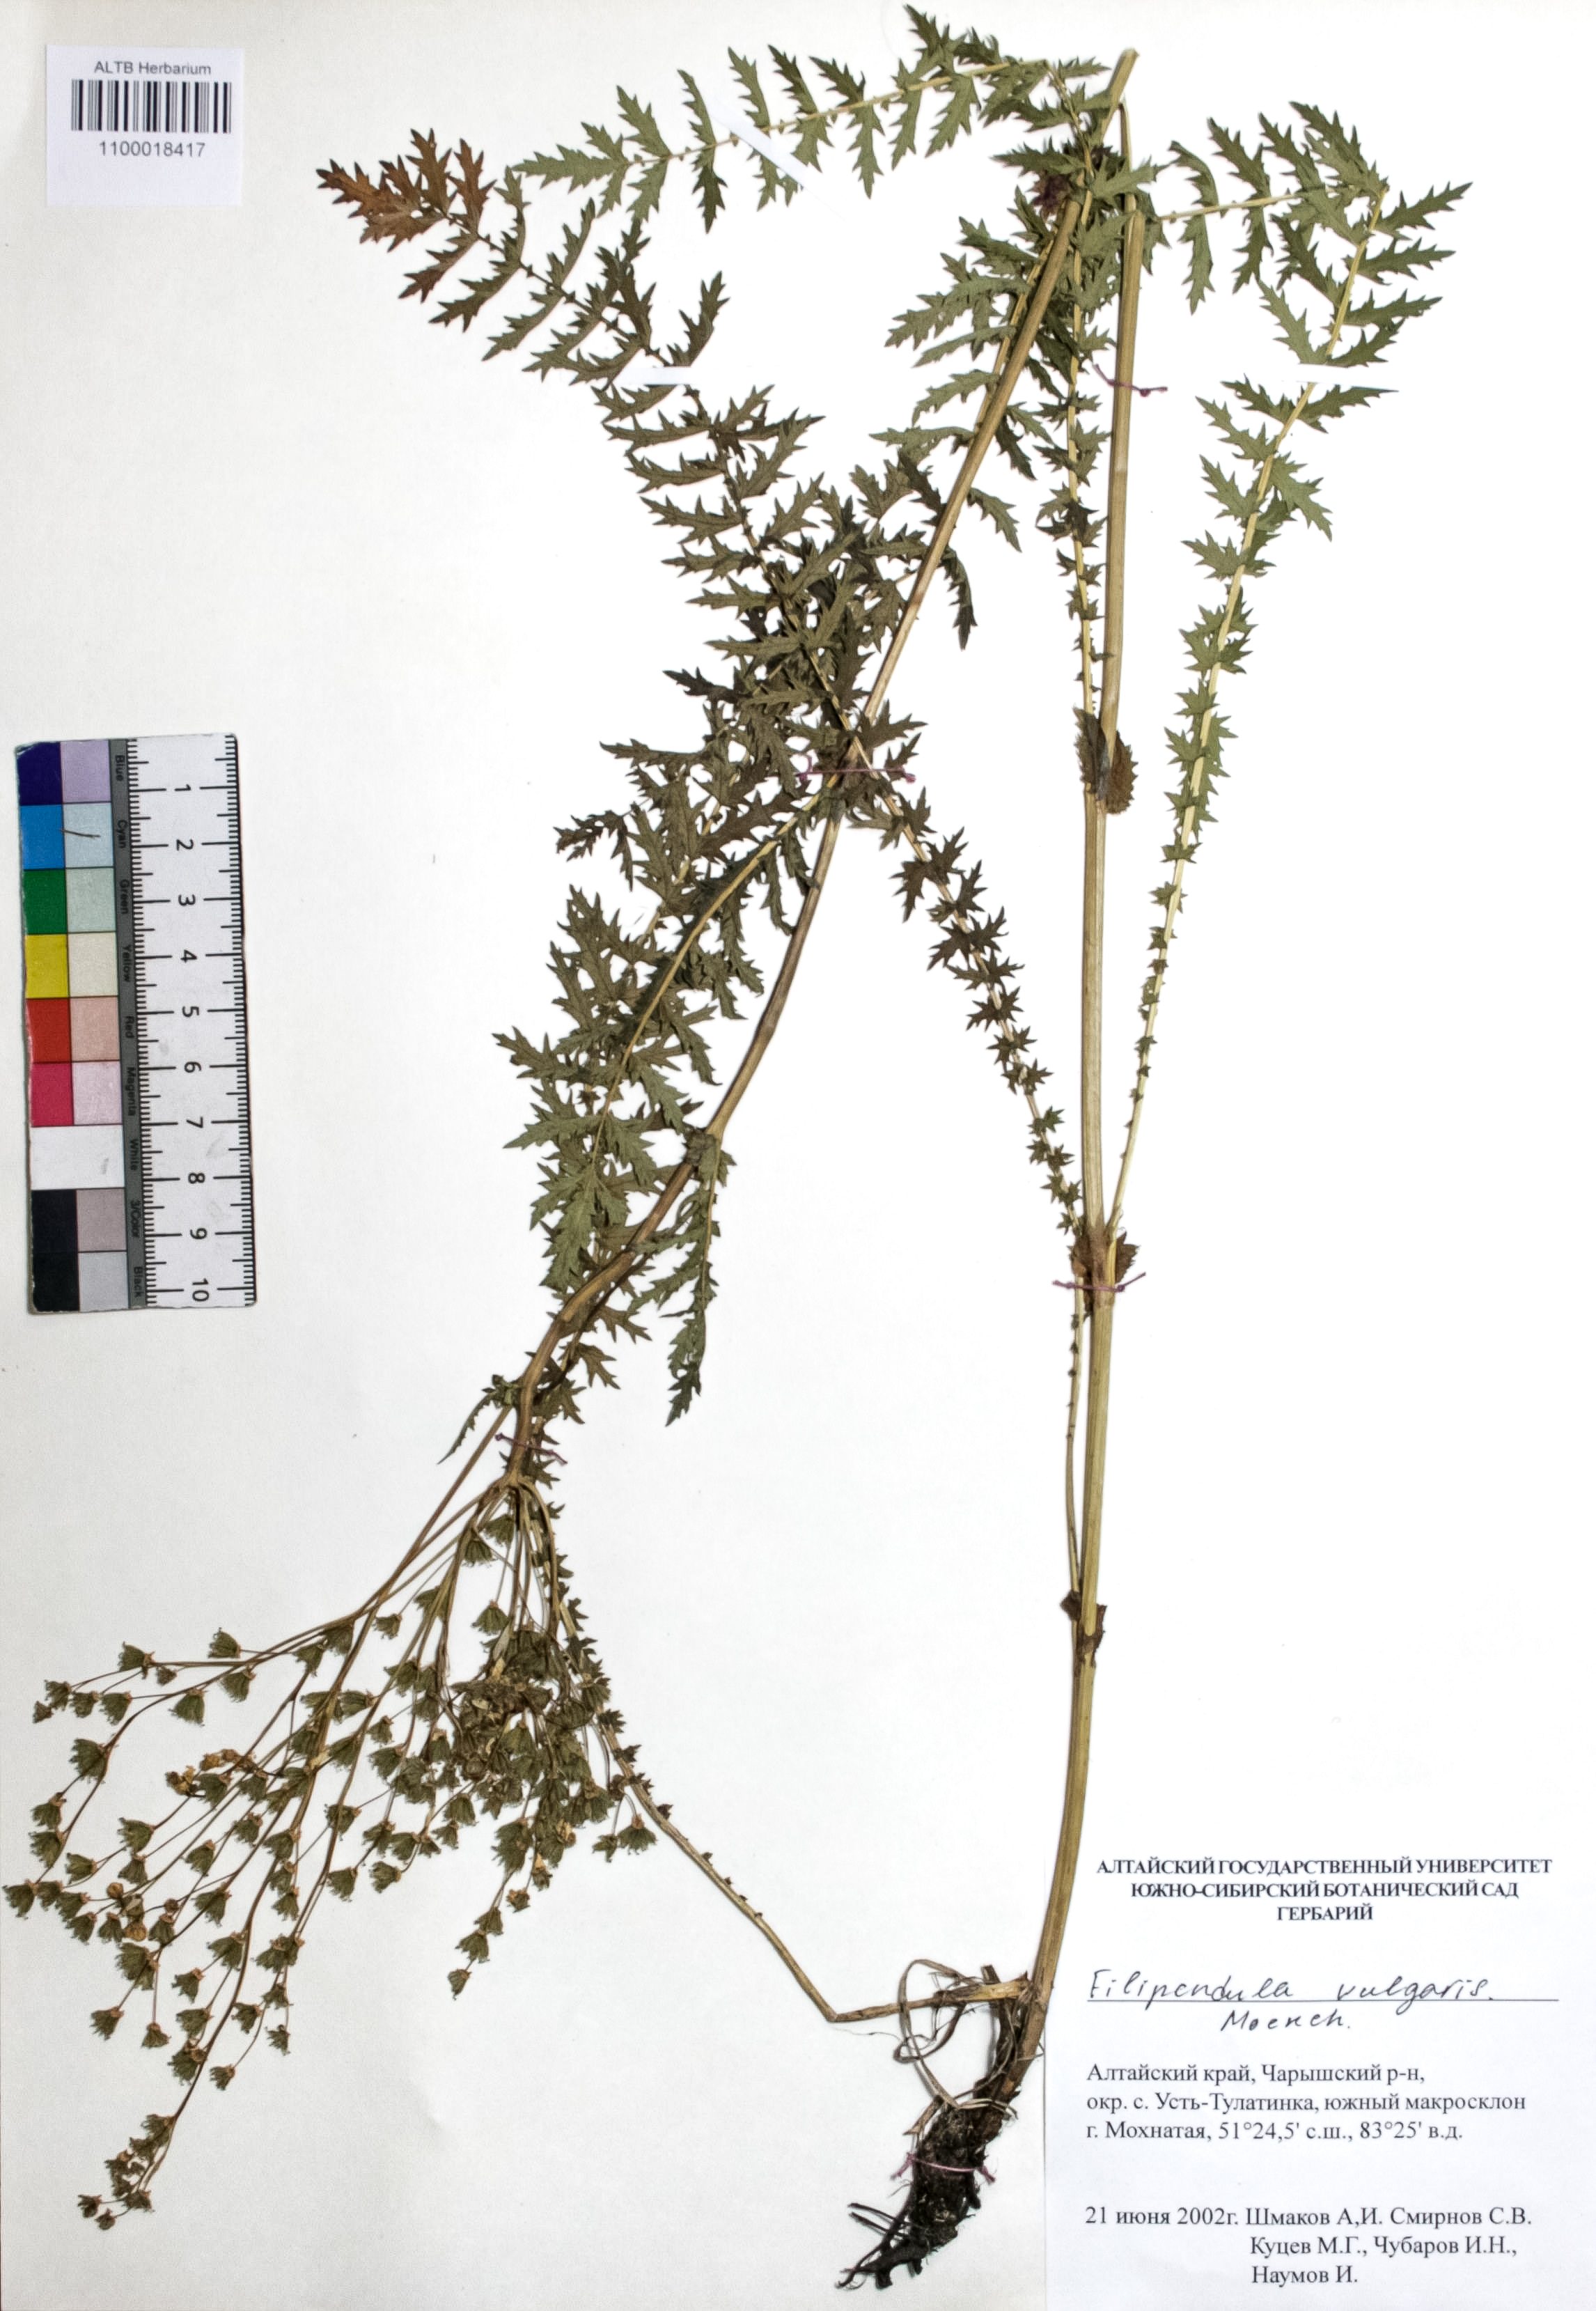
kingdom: Plantae
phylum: Tracheophyta
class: Magnoliopsida
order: Rosales
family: Rosaceae
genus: Filipendula
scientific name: Filipendula vulgaris
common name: Dropwort
